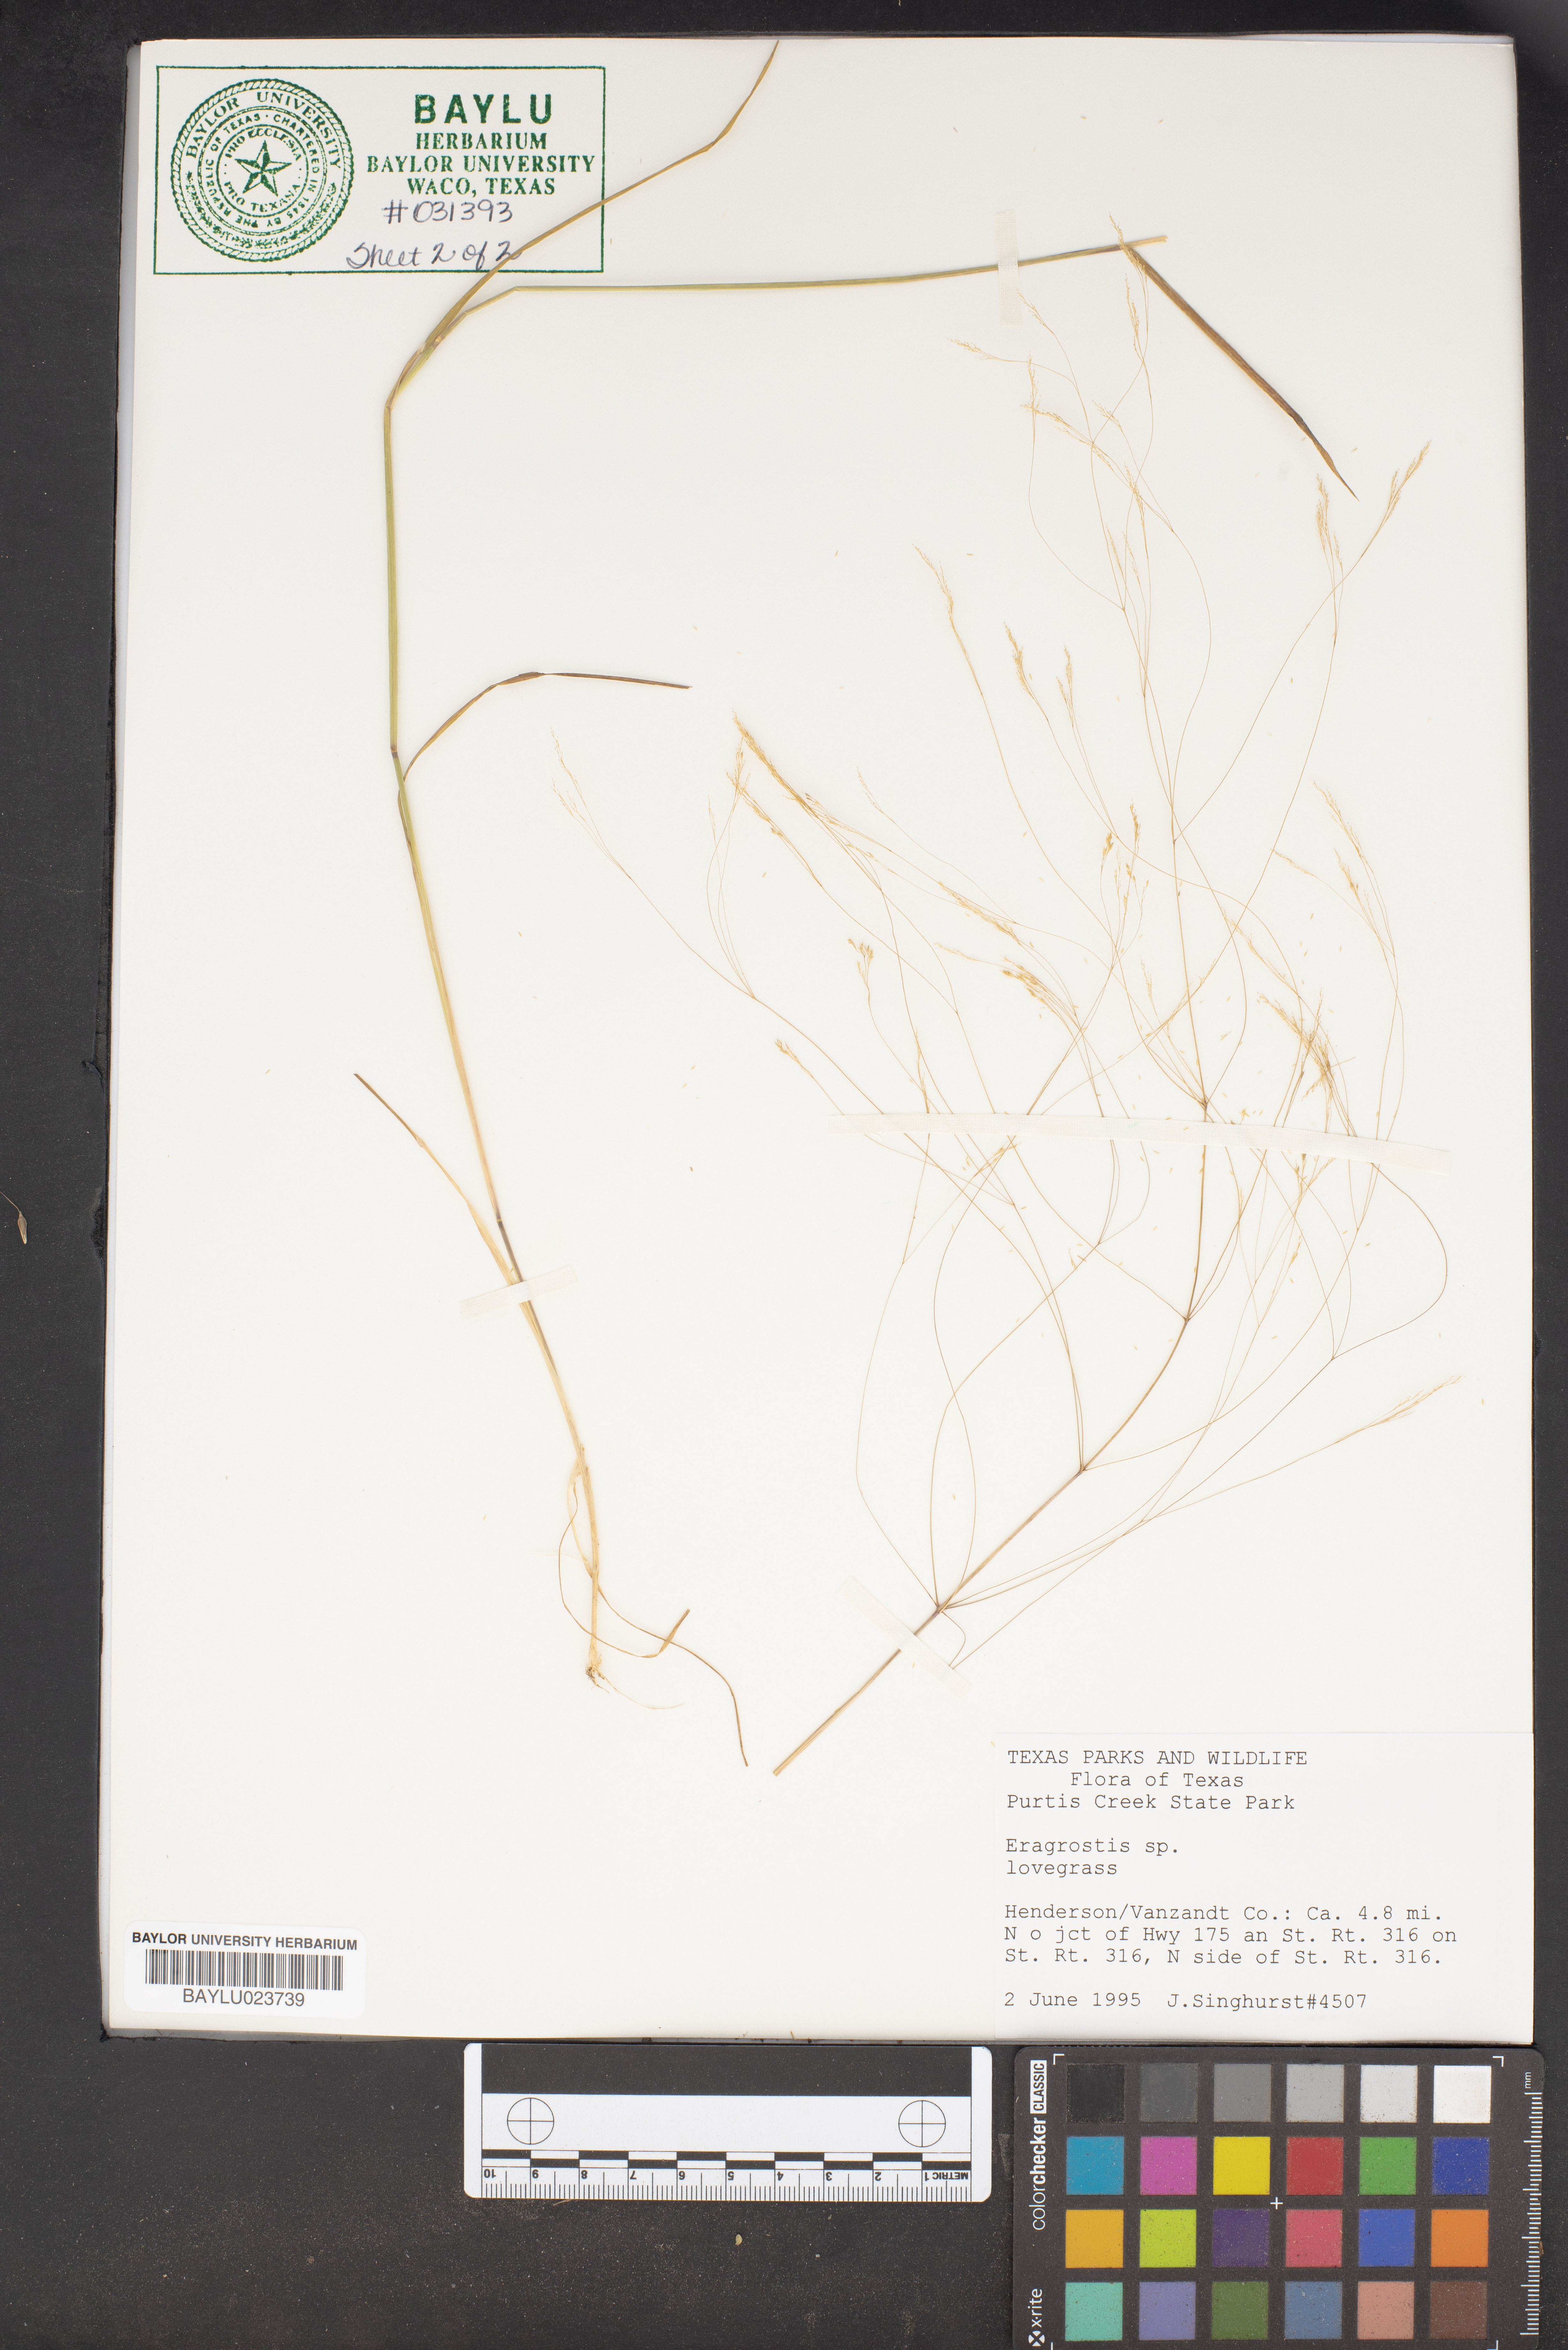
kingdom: Plantae
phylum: Tracheophyta
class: Liliopsida
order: Poales
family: Poaceae
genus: Eragrostis
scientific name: Eragrostis
